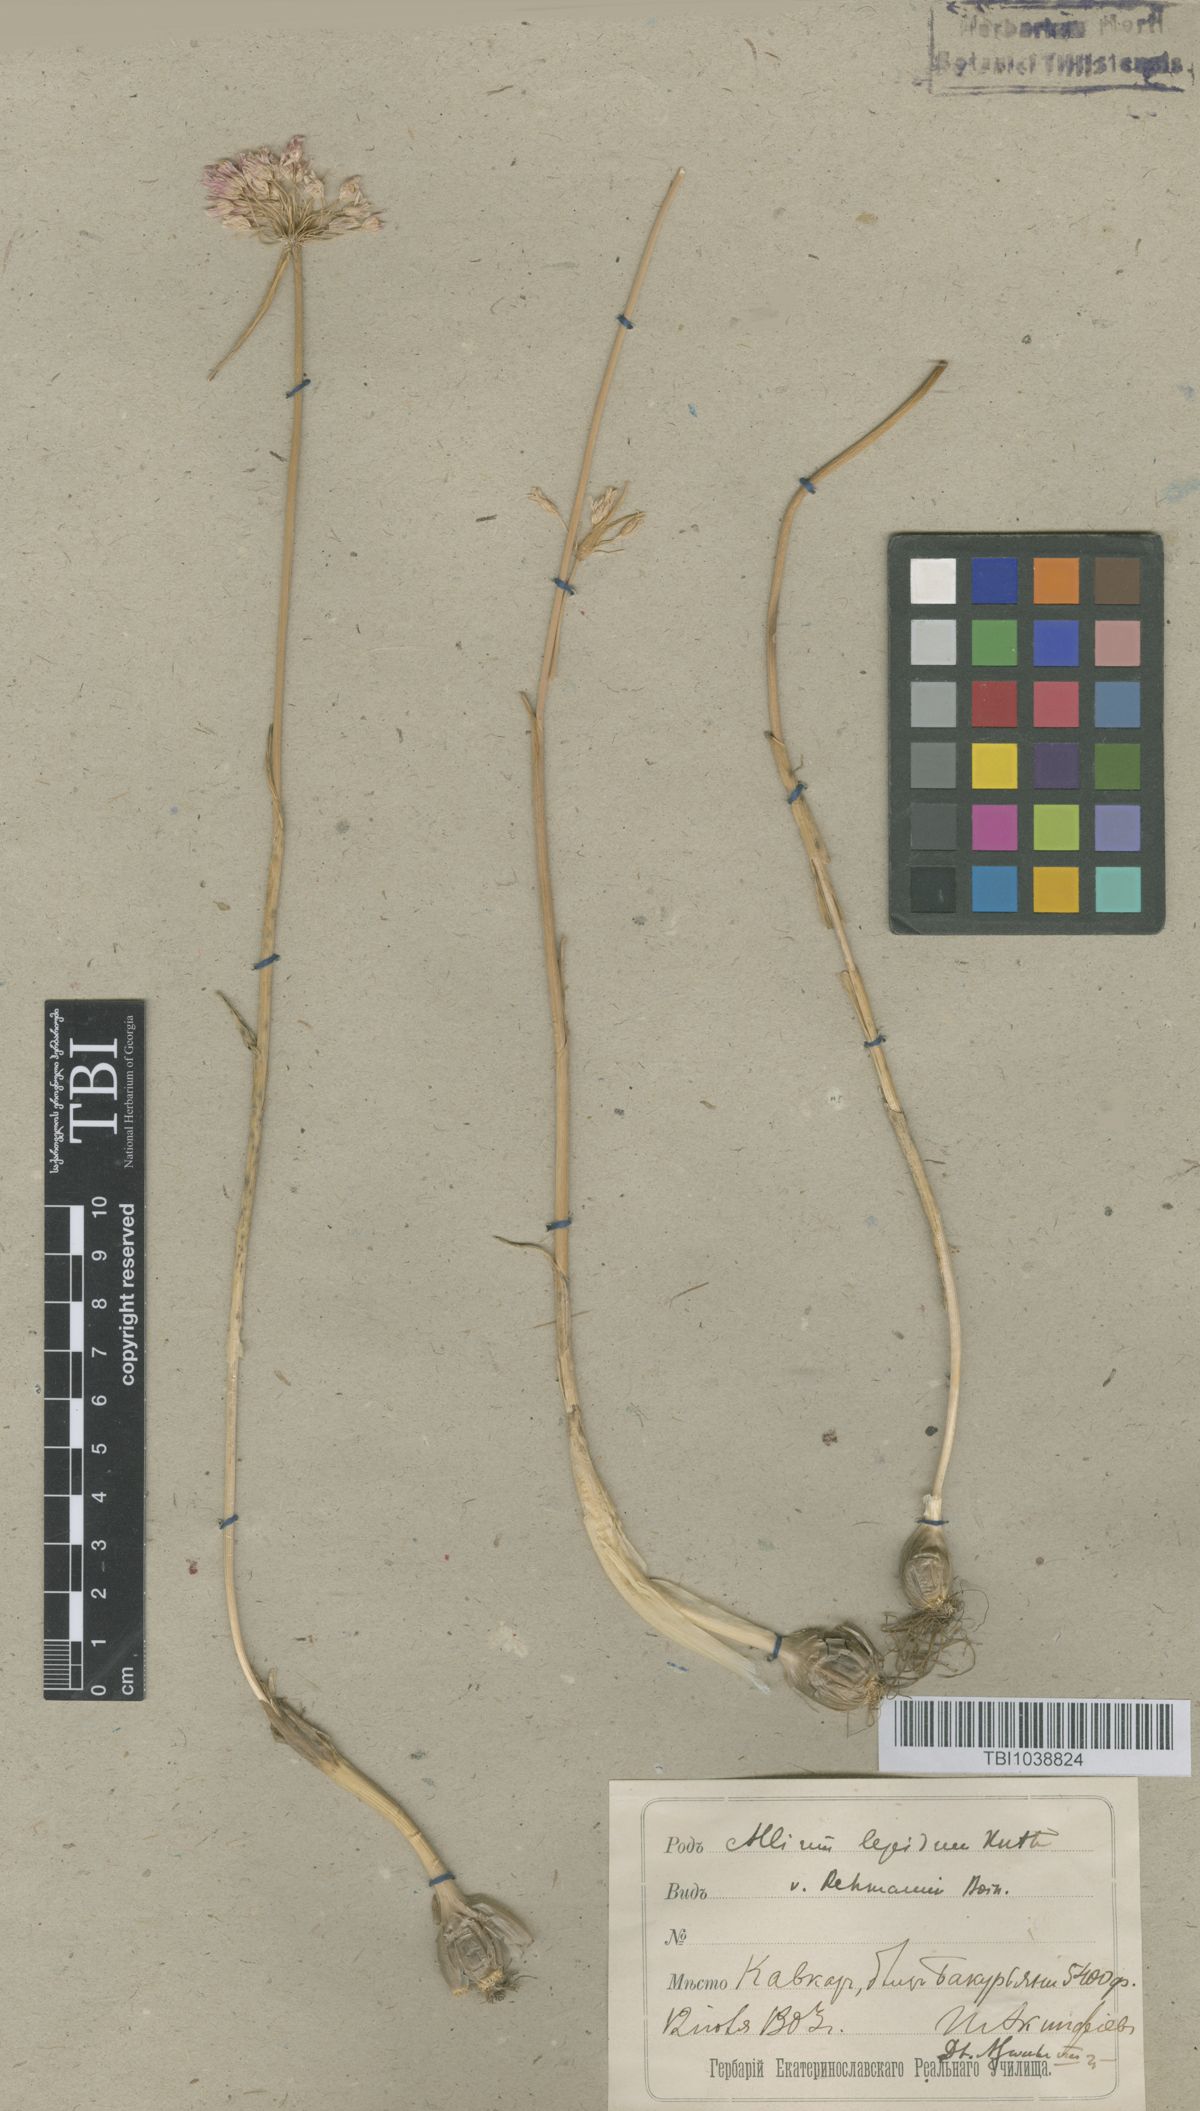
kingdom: Plantae
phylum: Tracheophyta
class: Liliopsida
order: Asparagales
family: Amaryllidaceae
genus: Allium
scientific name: Allium kunthianum
